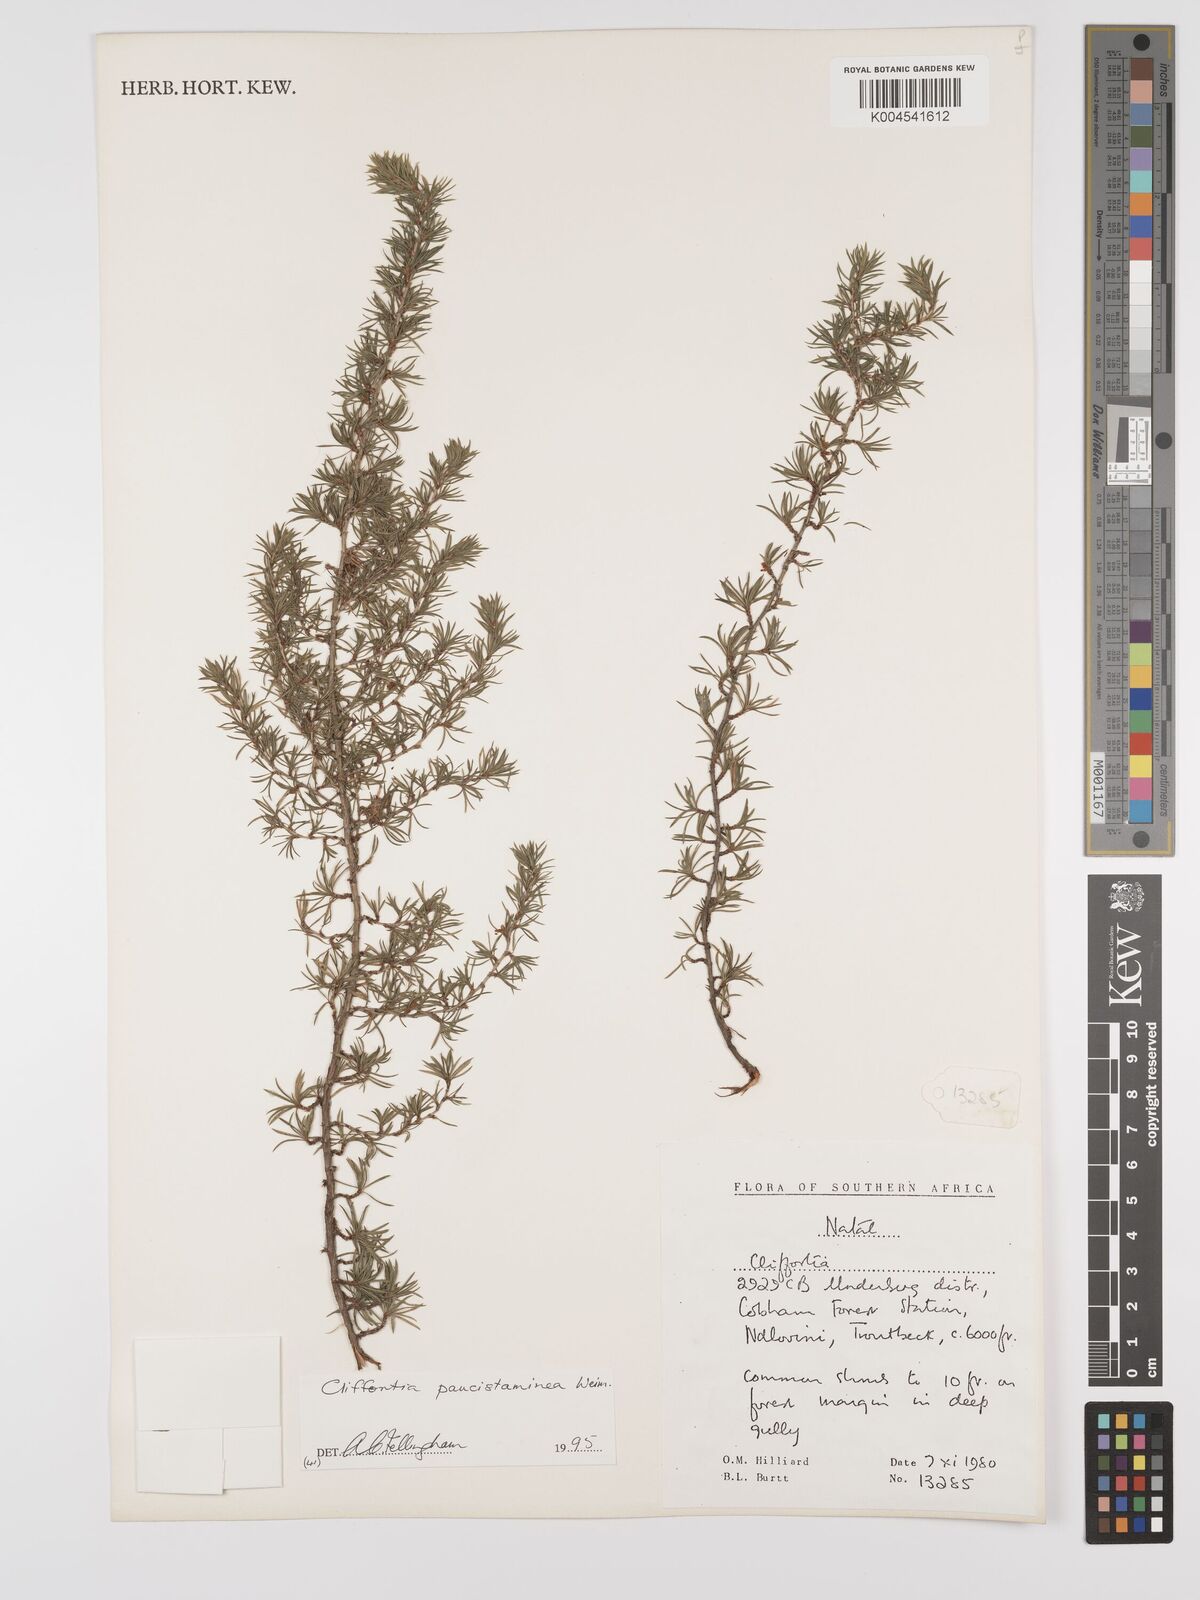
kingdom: Plantae
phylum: Tracheophyta
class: Magnoliopsida
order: Rosales
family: Rosaceae
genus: Cliffortia
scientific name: Cliffortia paucistaminea
